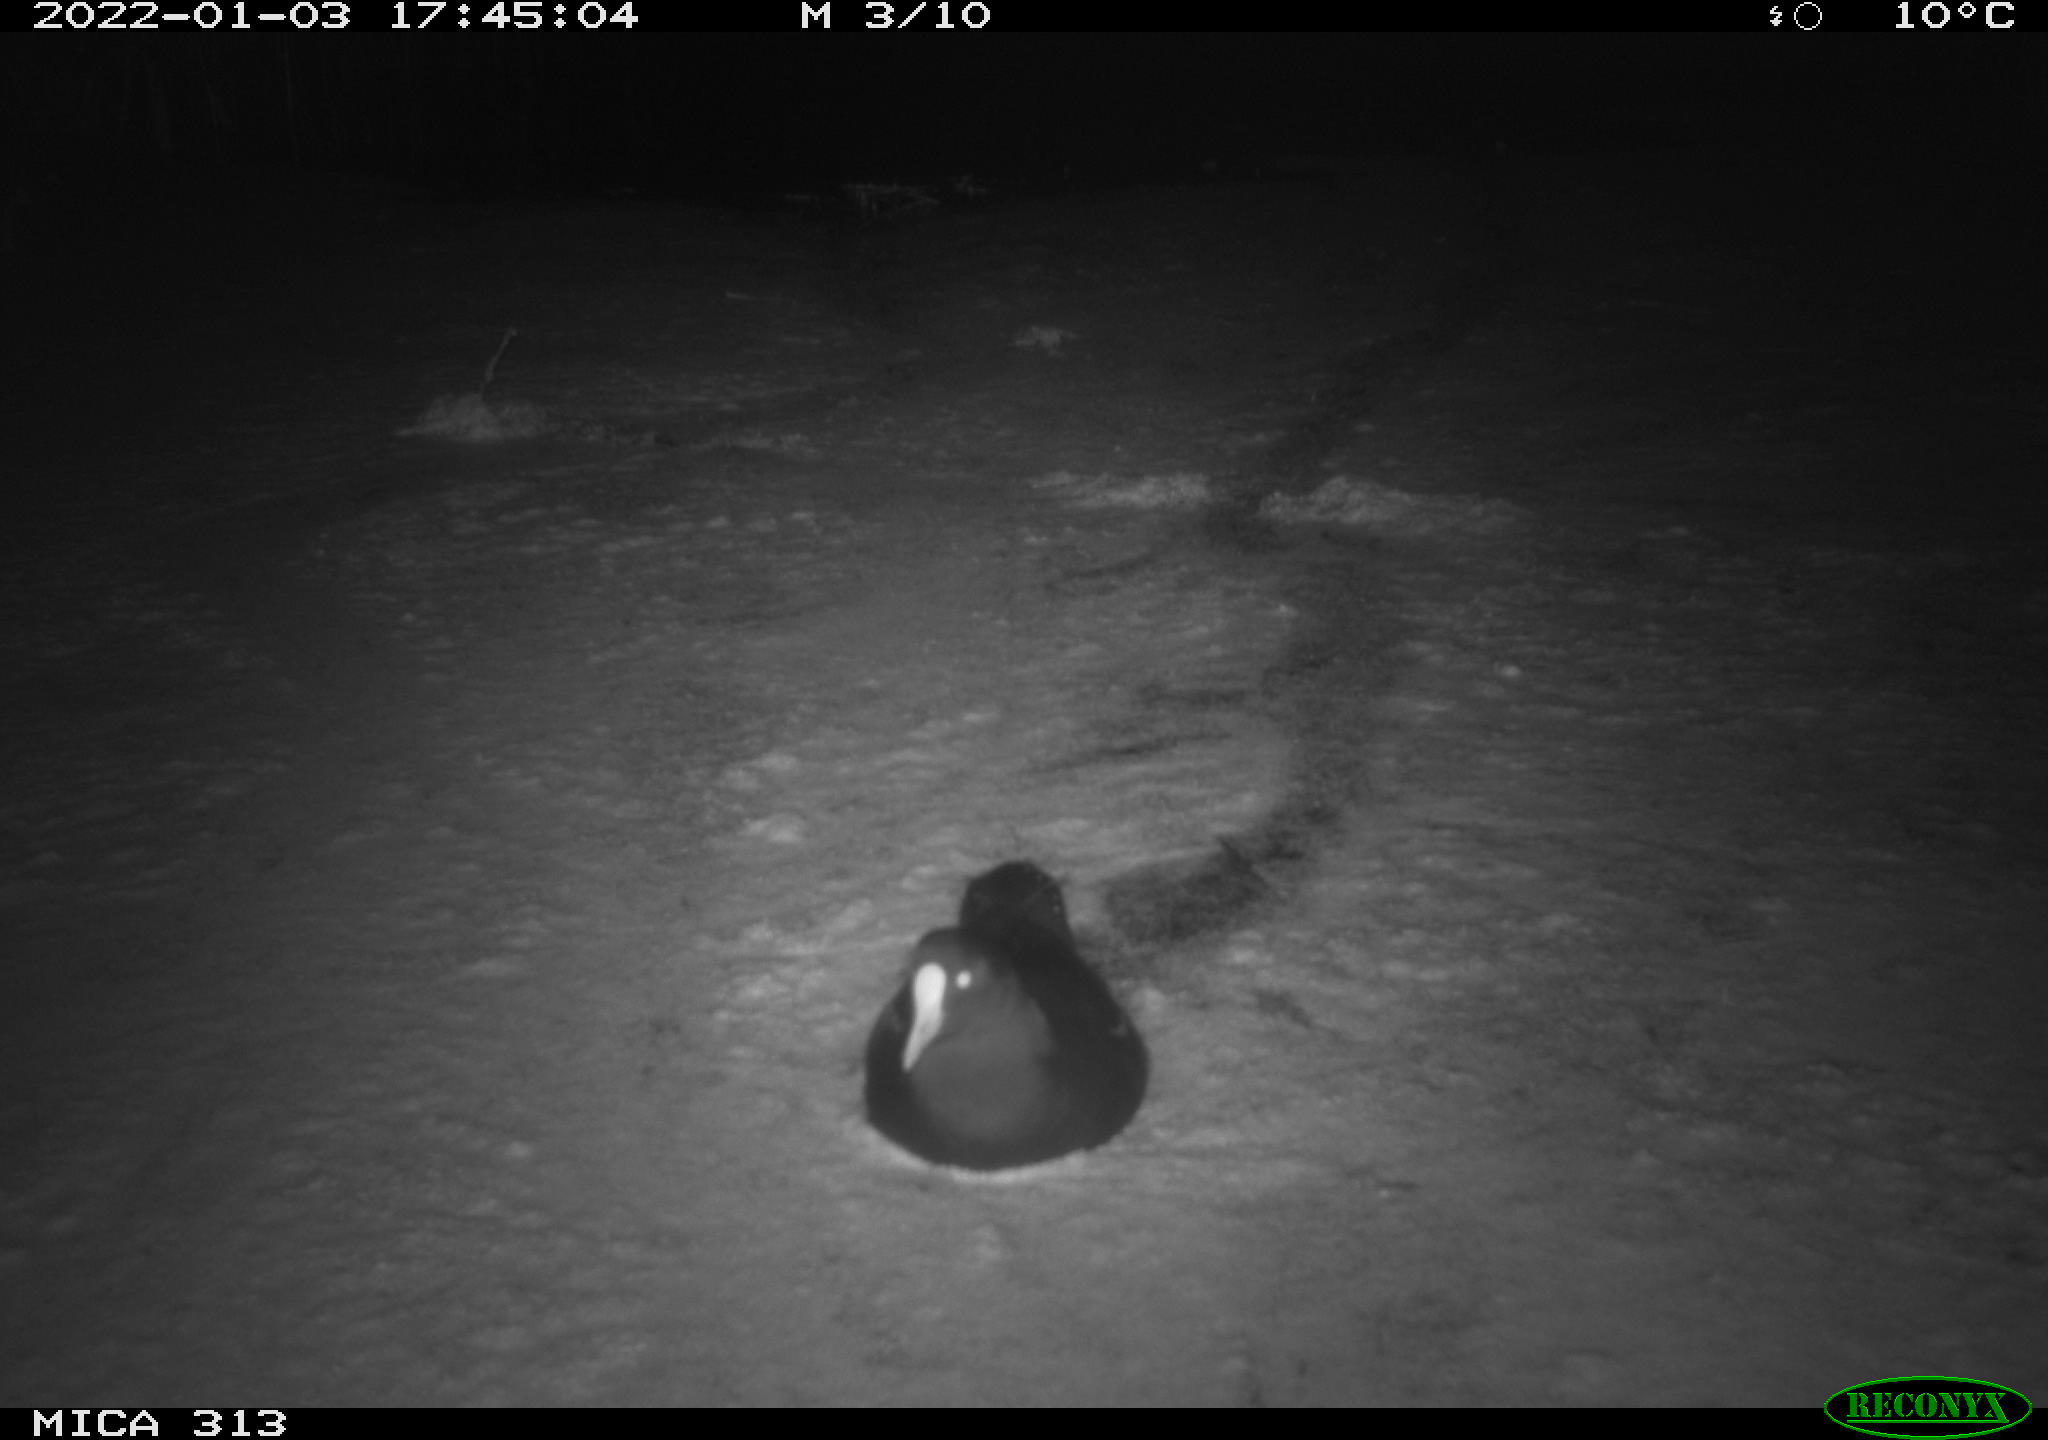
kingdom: Animalia
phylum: Chordata
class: Aves
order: Gruiformes
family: Rallidae
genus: Fulica
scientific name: Fulica atra
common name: Eurasian coot
